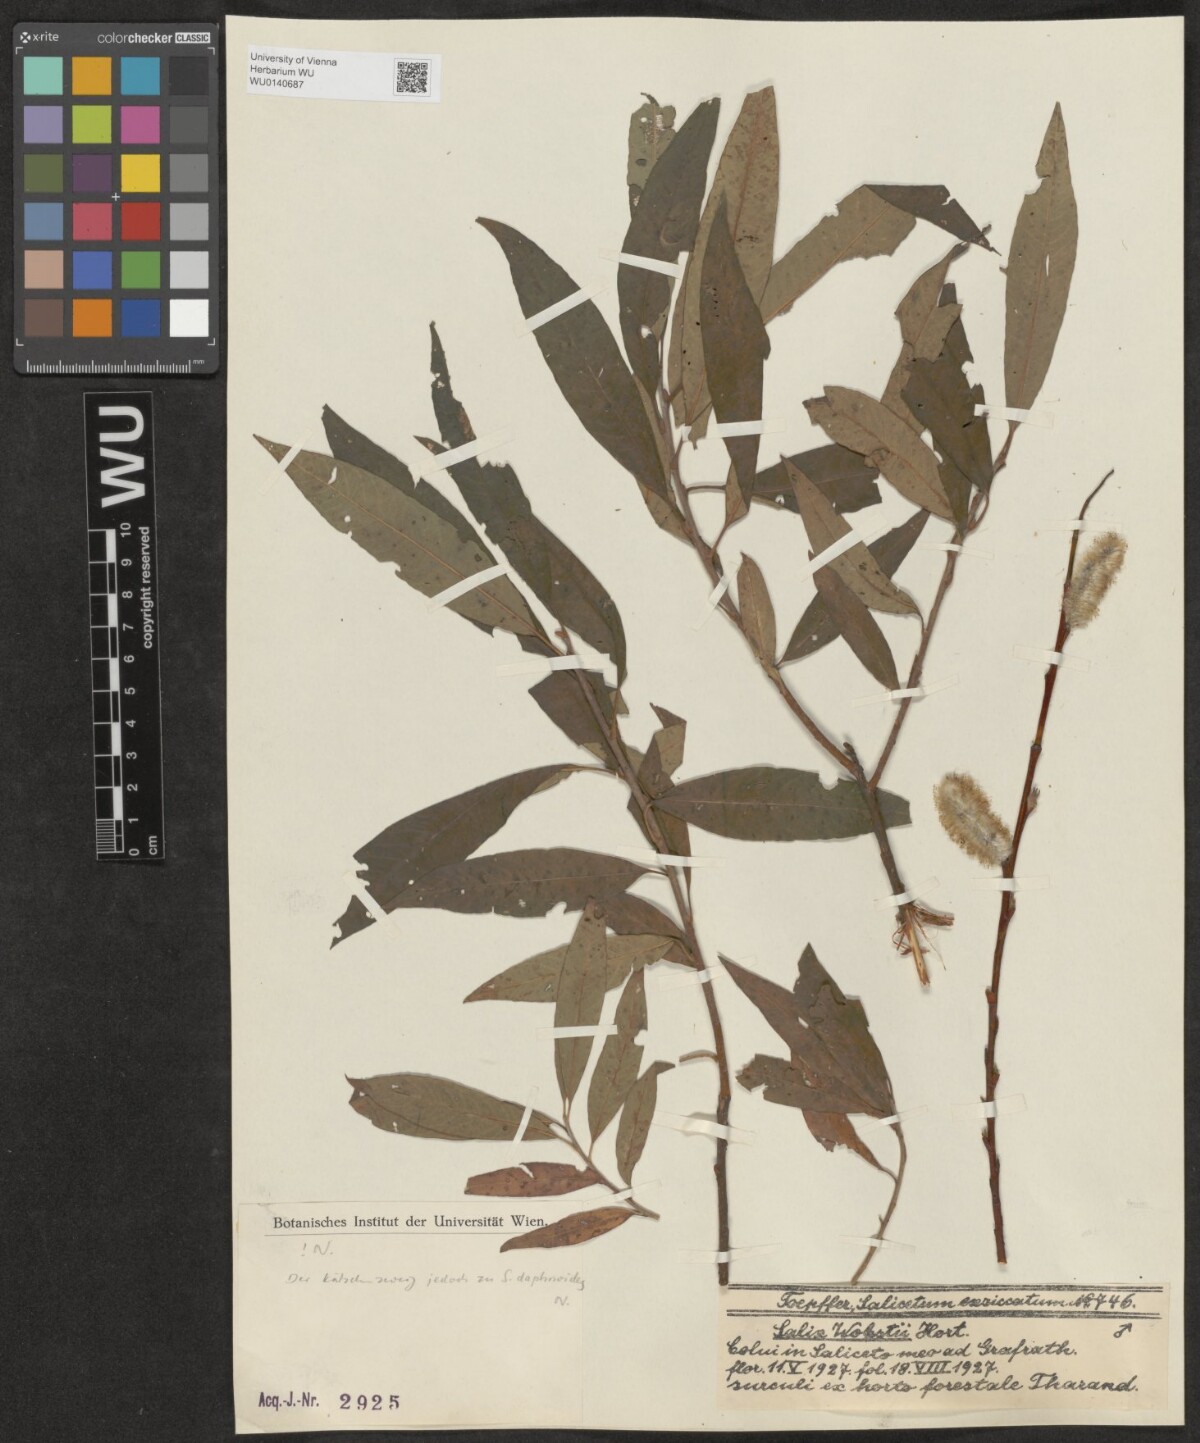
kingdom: Plantae
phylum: Tracheophyta
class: Magnoliopsida
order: Malpighiales
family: Salicaceae
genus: Salix
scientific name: Salix wobstii
